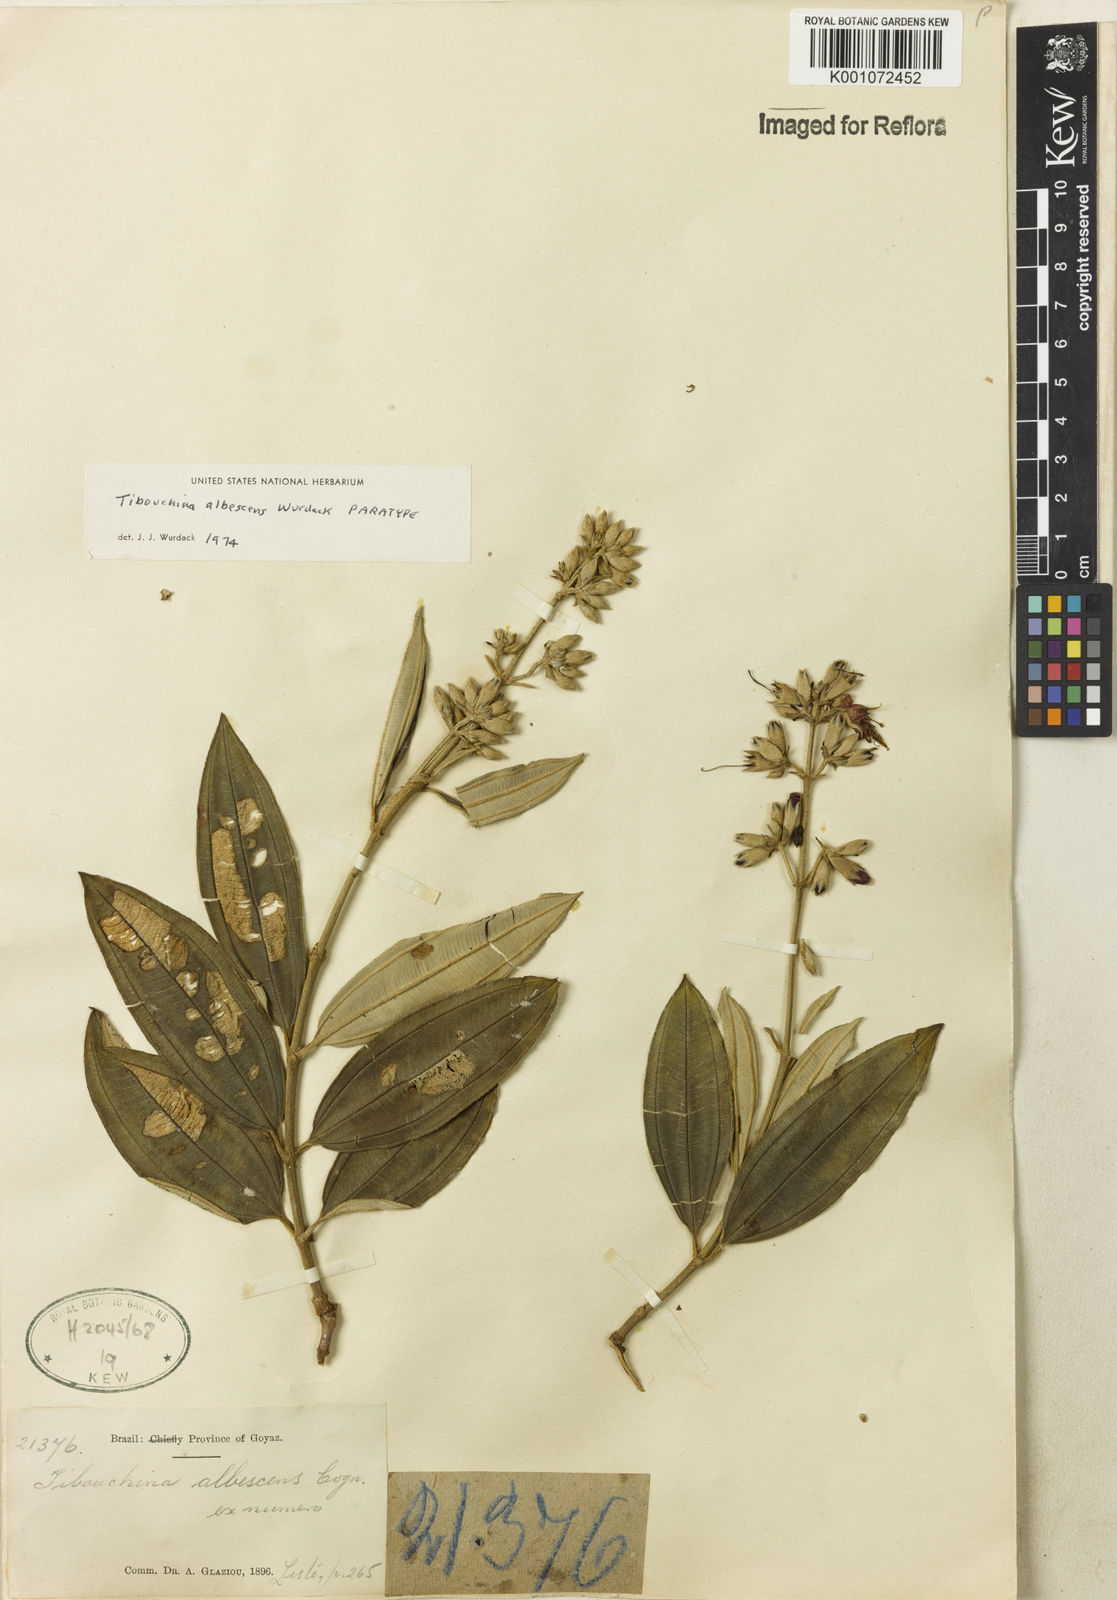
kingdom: Plantae
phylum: Tracheophyta
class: Magnoliopsida
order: Myrtales
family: Melastomataceae
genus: Tibouchina
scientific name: Tibouchina
